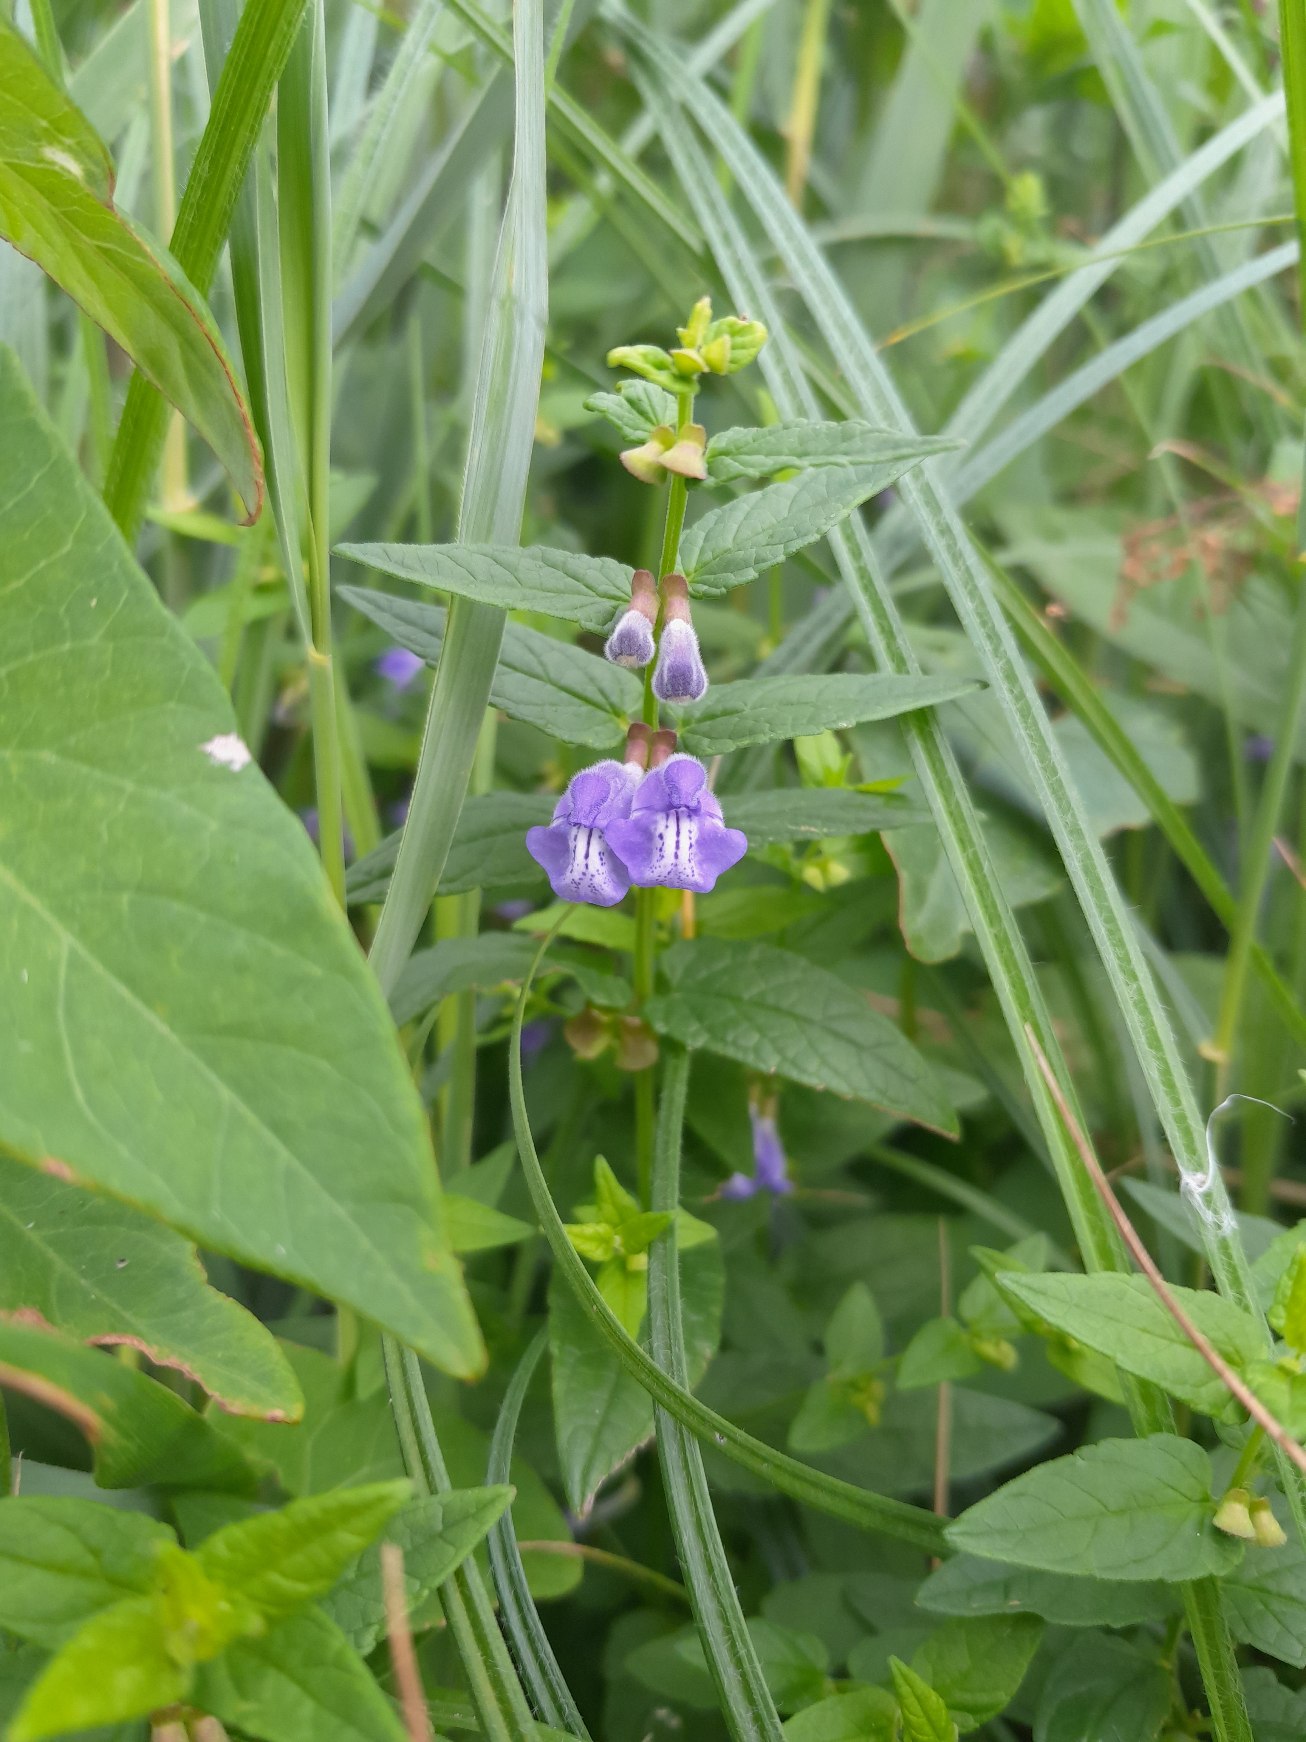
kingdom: Plantae
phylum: Tracheophyta
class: Magnoliopsida
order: Lamiales
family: Lamiaceae
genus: Scutellaria
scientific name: Scutellaria galericulata
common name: Almindelig skjolddrager
